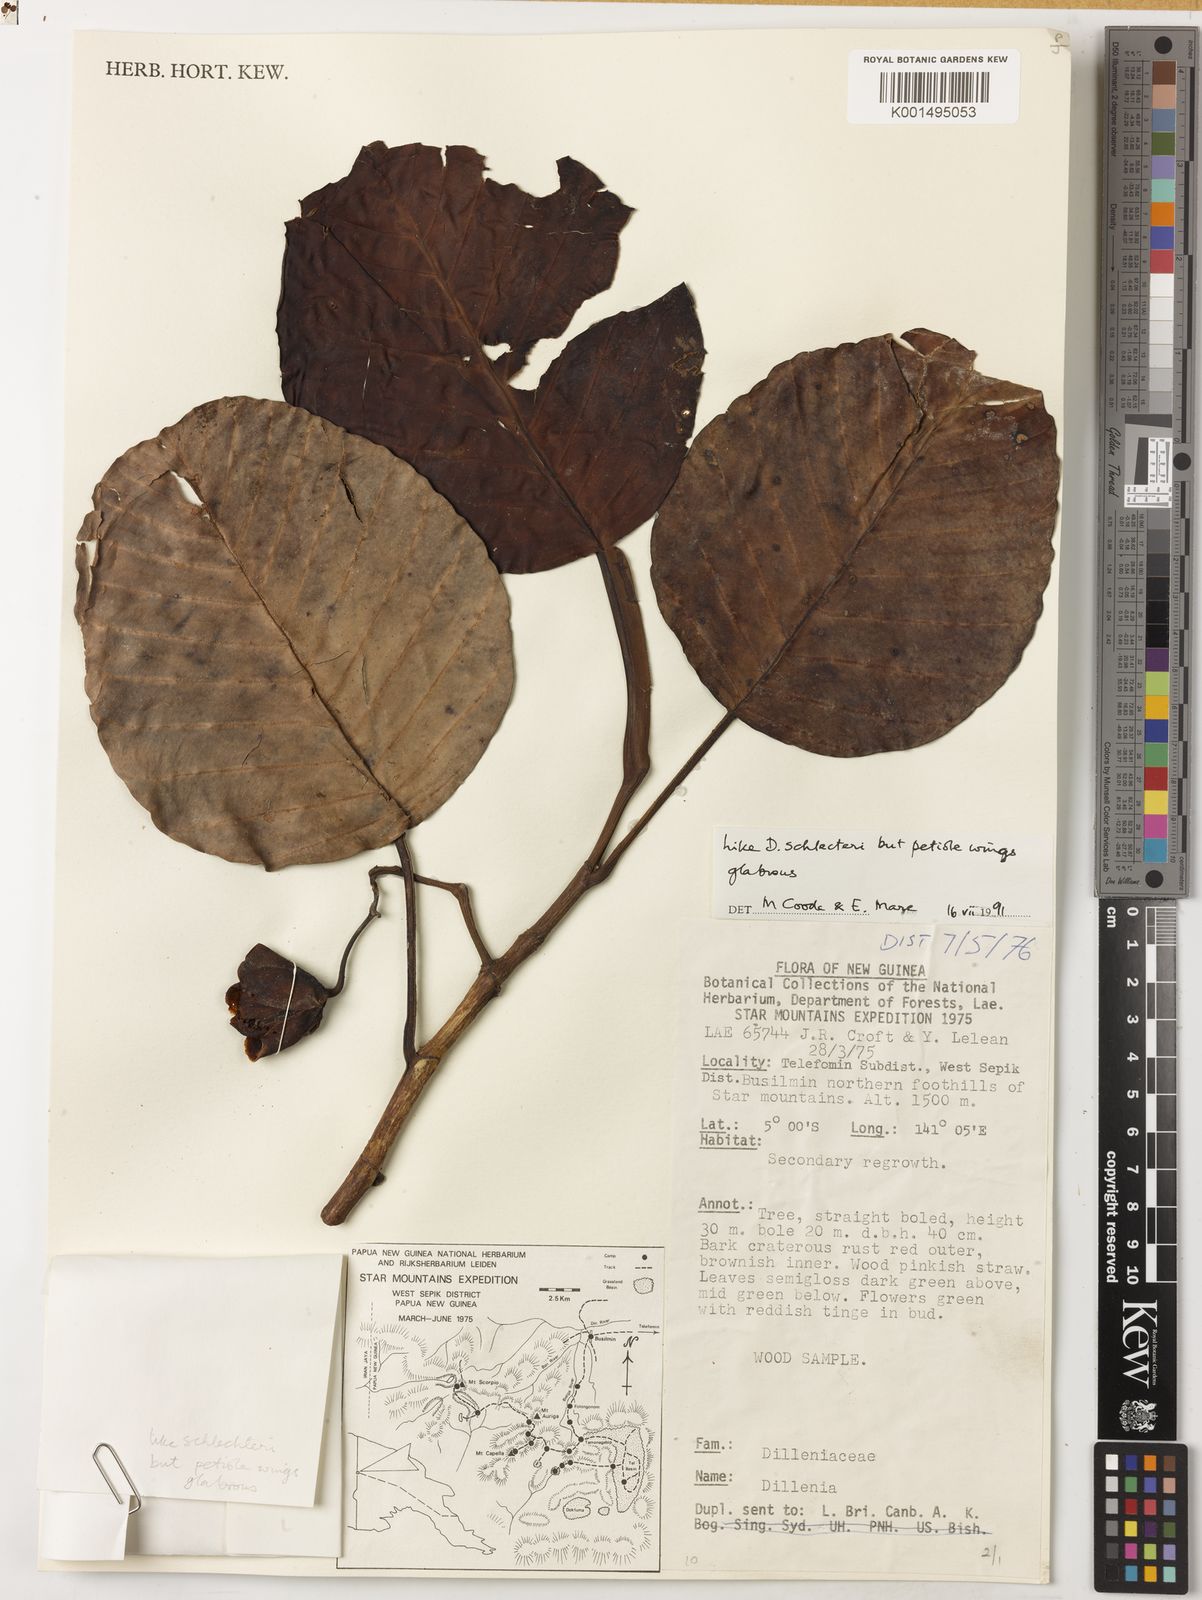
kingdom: Plantae
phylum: Tracheophyta
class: Magnoliopsida
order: Dilleniales
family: Dilleniaceae
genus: Dillenia
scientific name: Dillenia schlechteri
